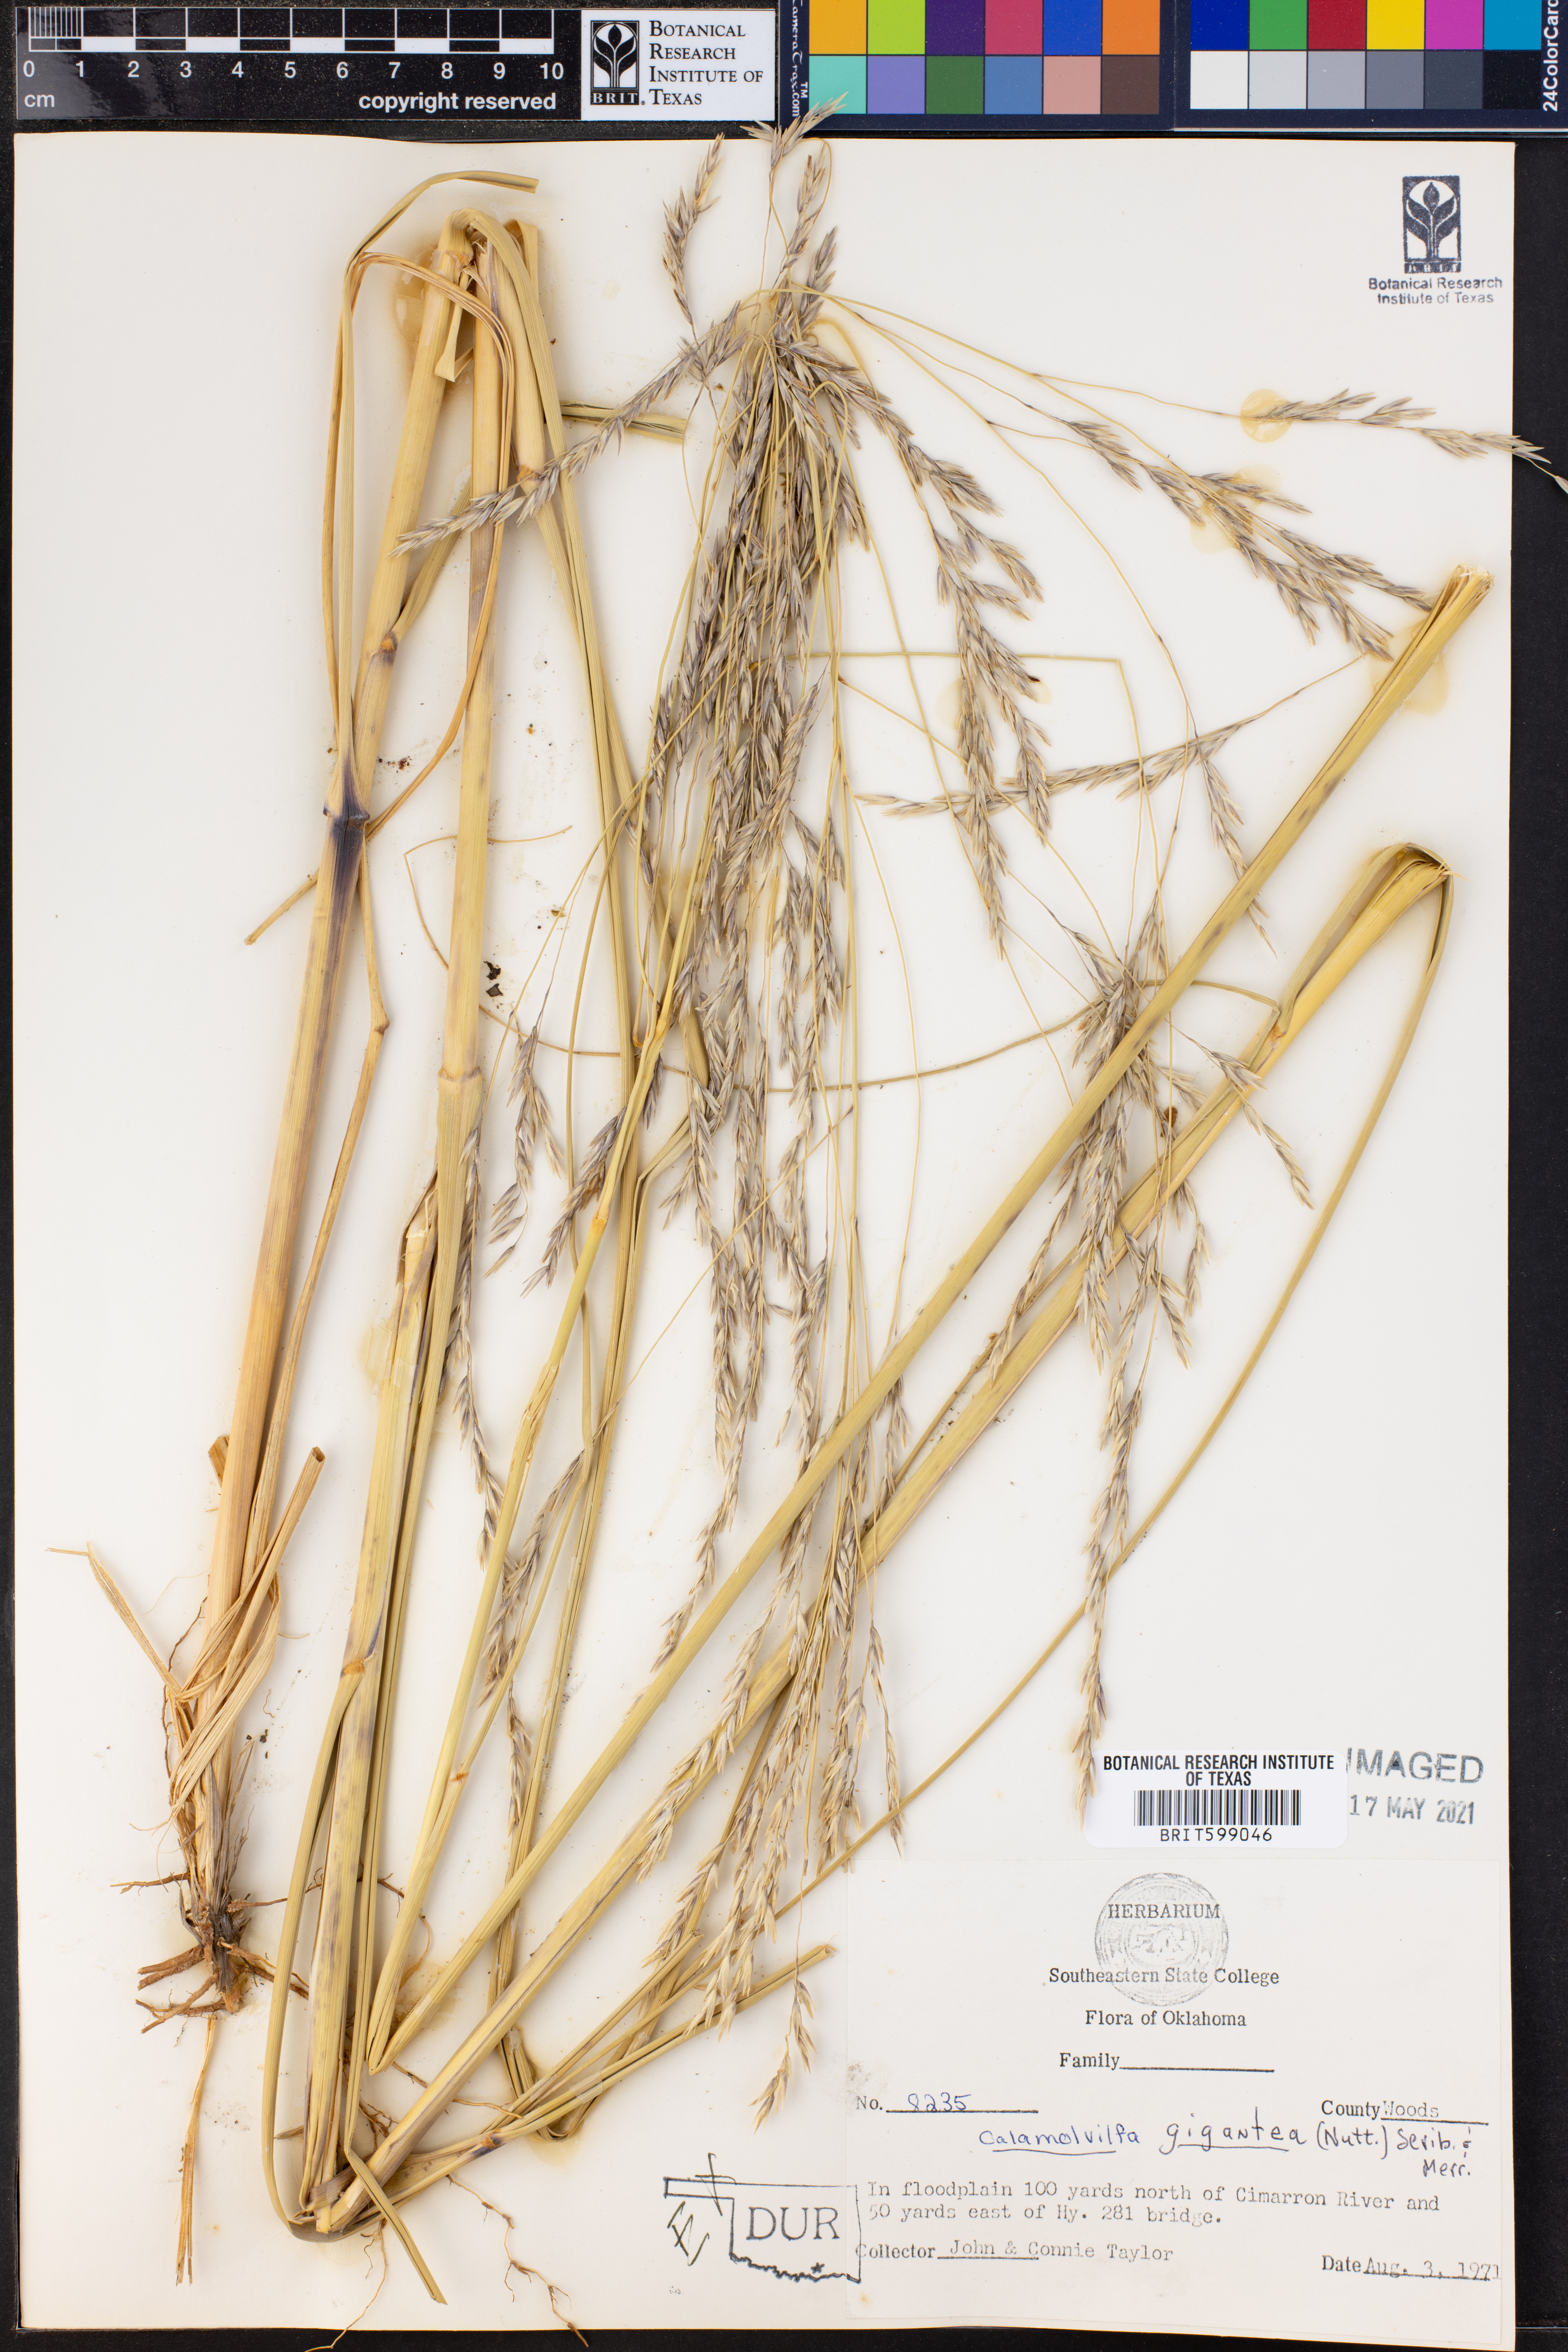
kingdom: Plantae
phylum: Tracheophyta
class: Liliopsida
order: Poales
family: Poaceae
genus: Sporobolus
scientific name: Sporobolus arenicola
